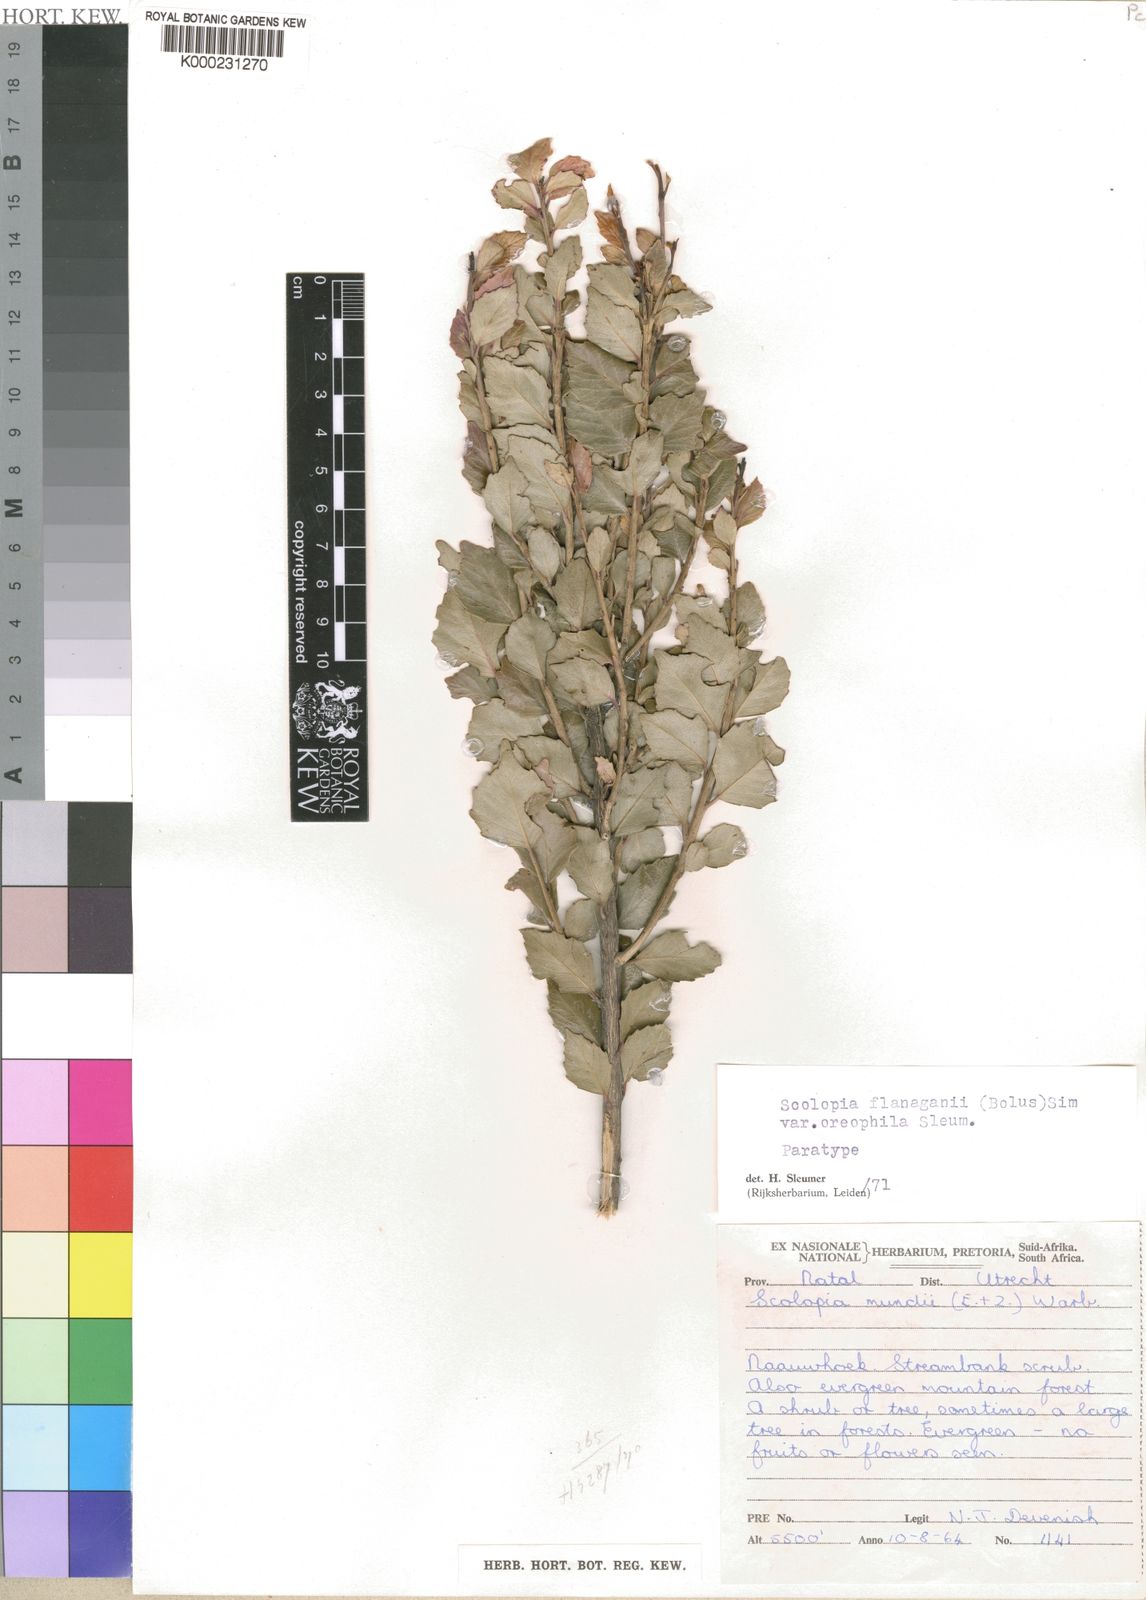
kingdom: Plantae
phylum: Tracheophyta
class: Magnoliopsida
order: Malpighiales
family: Salicaceae
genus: Scolopia
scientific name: Scolopia oreophila
